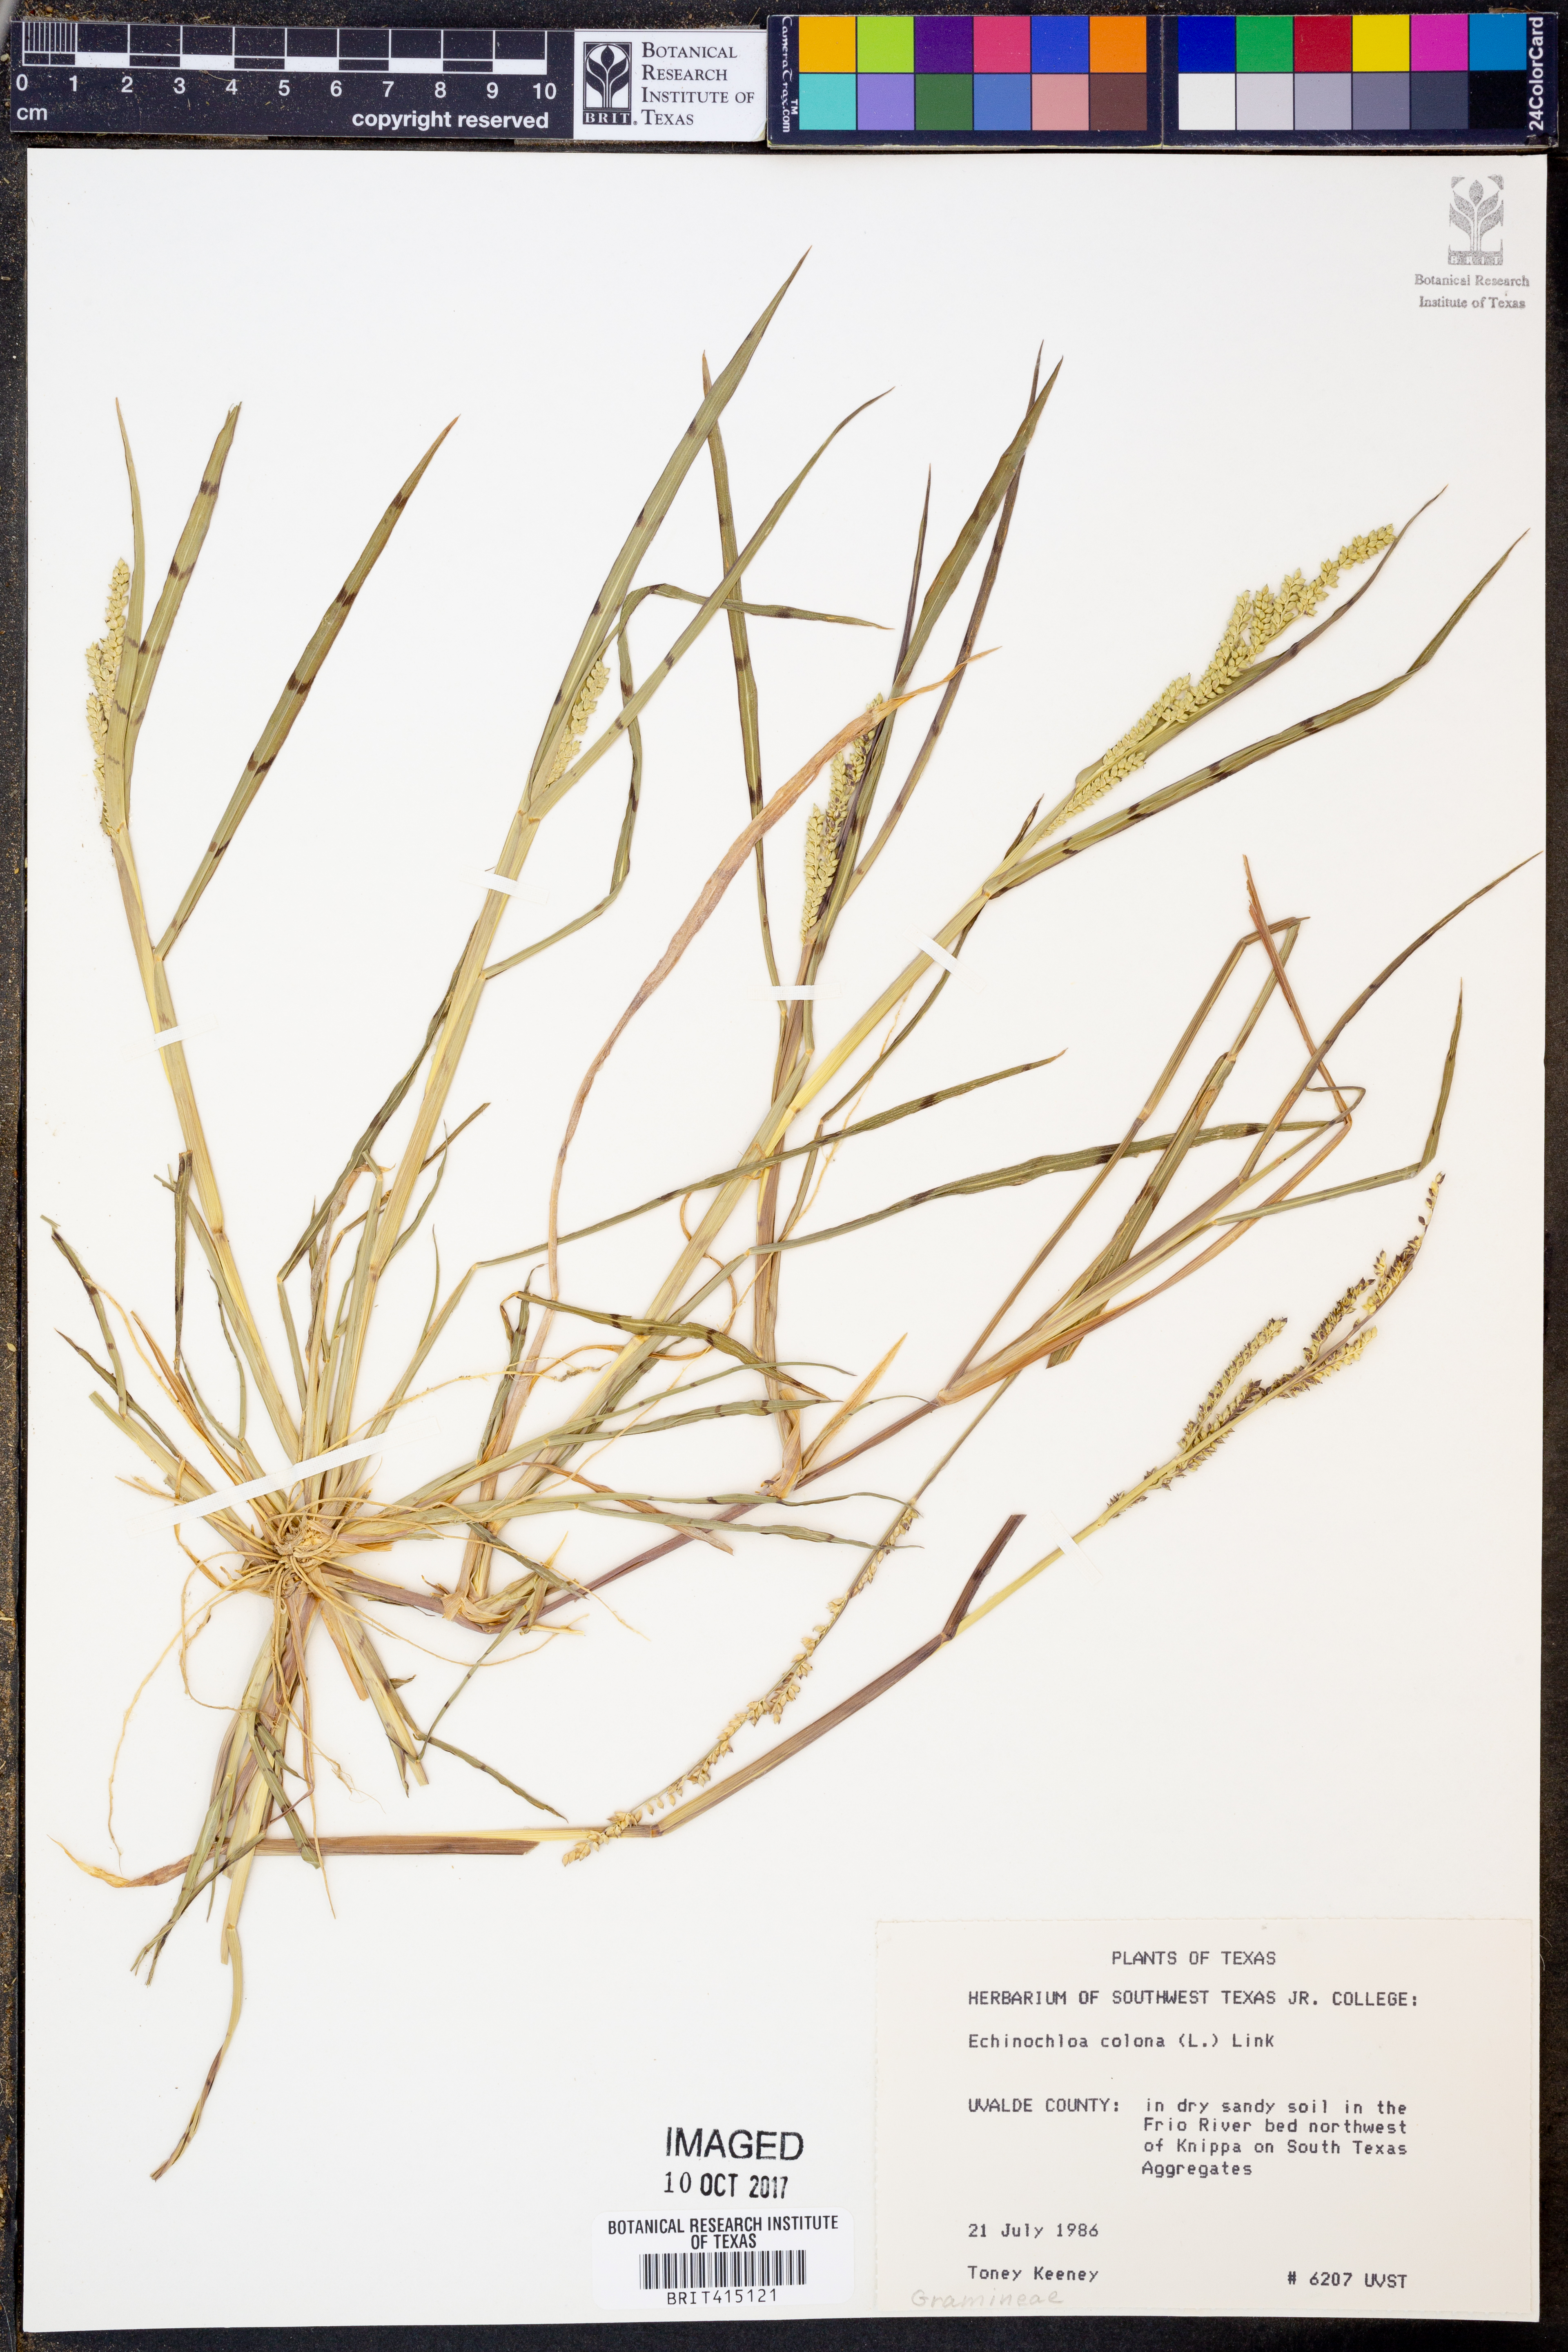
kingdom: Plantae
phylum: Tracheophyta
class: Liliopsida
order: Poales
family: Poaceae
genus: Echinochloa
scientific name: Echinochloa colonum
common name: Jungle rice
